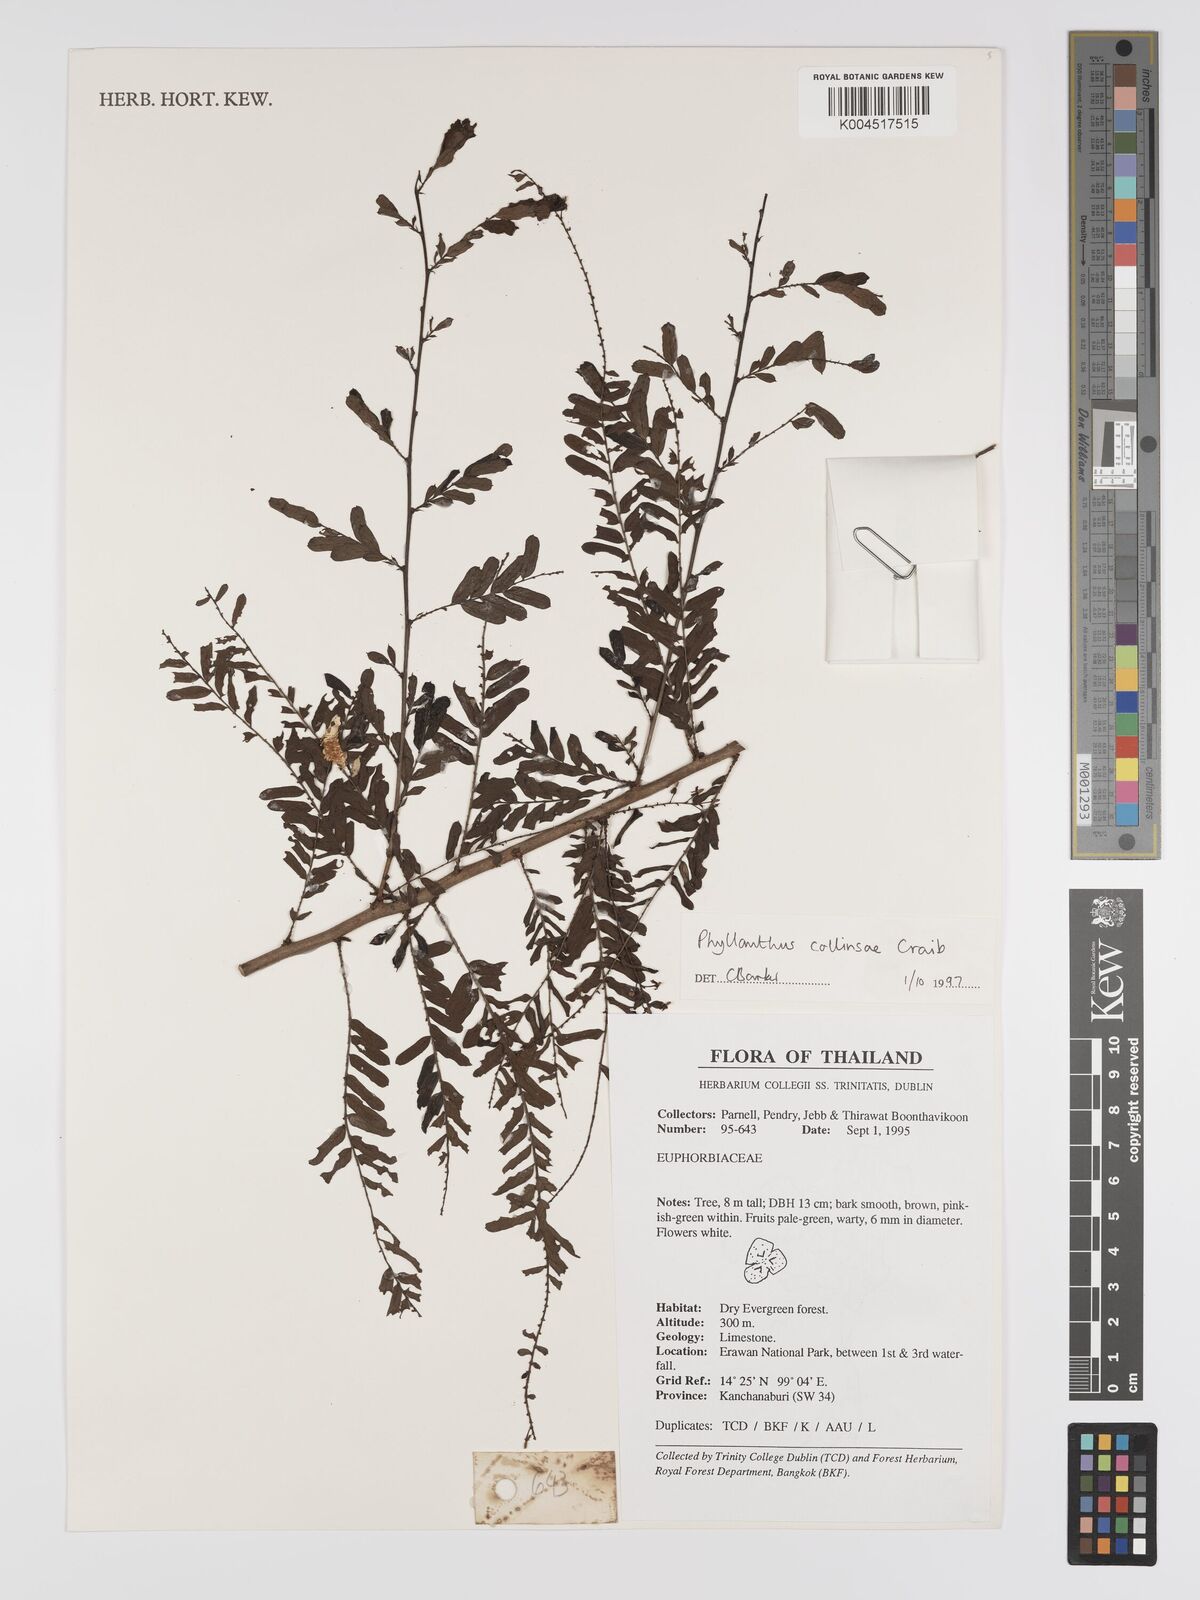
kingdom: Plantae
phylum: Tracheophyta
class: Magnoliopsida
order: Malpighiales
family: Phyllanthaceae
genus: Phyllanthus
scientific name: Phyllanthus collinsiae
